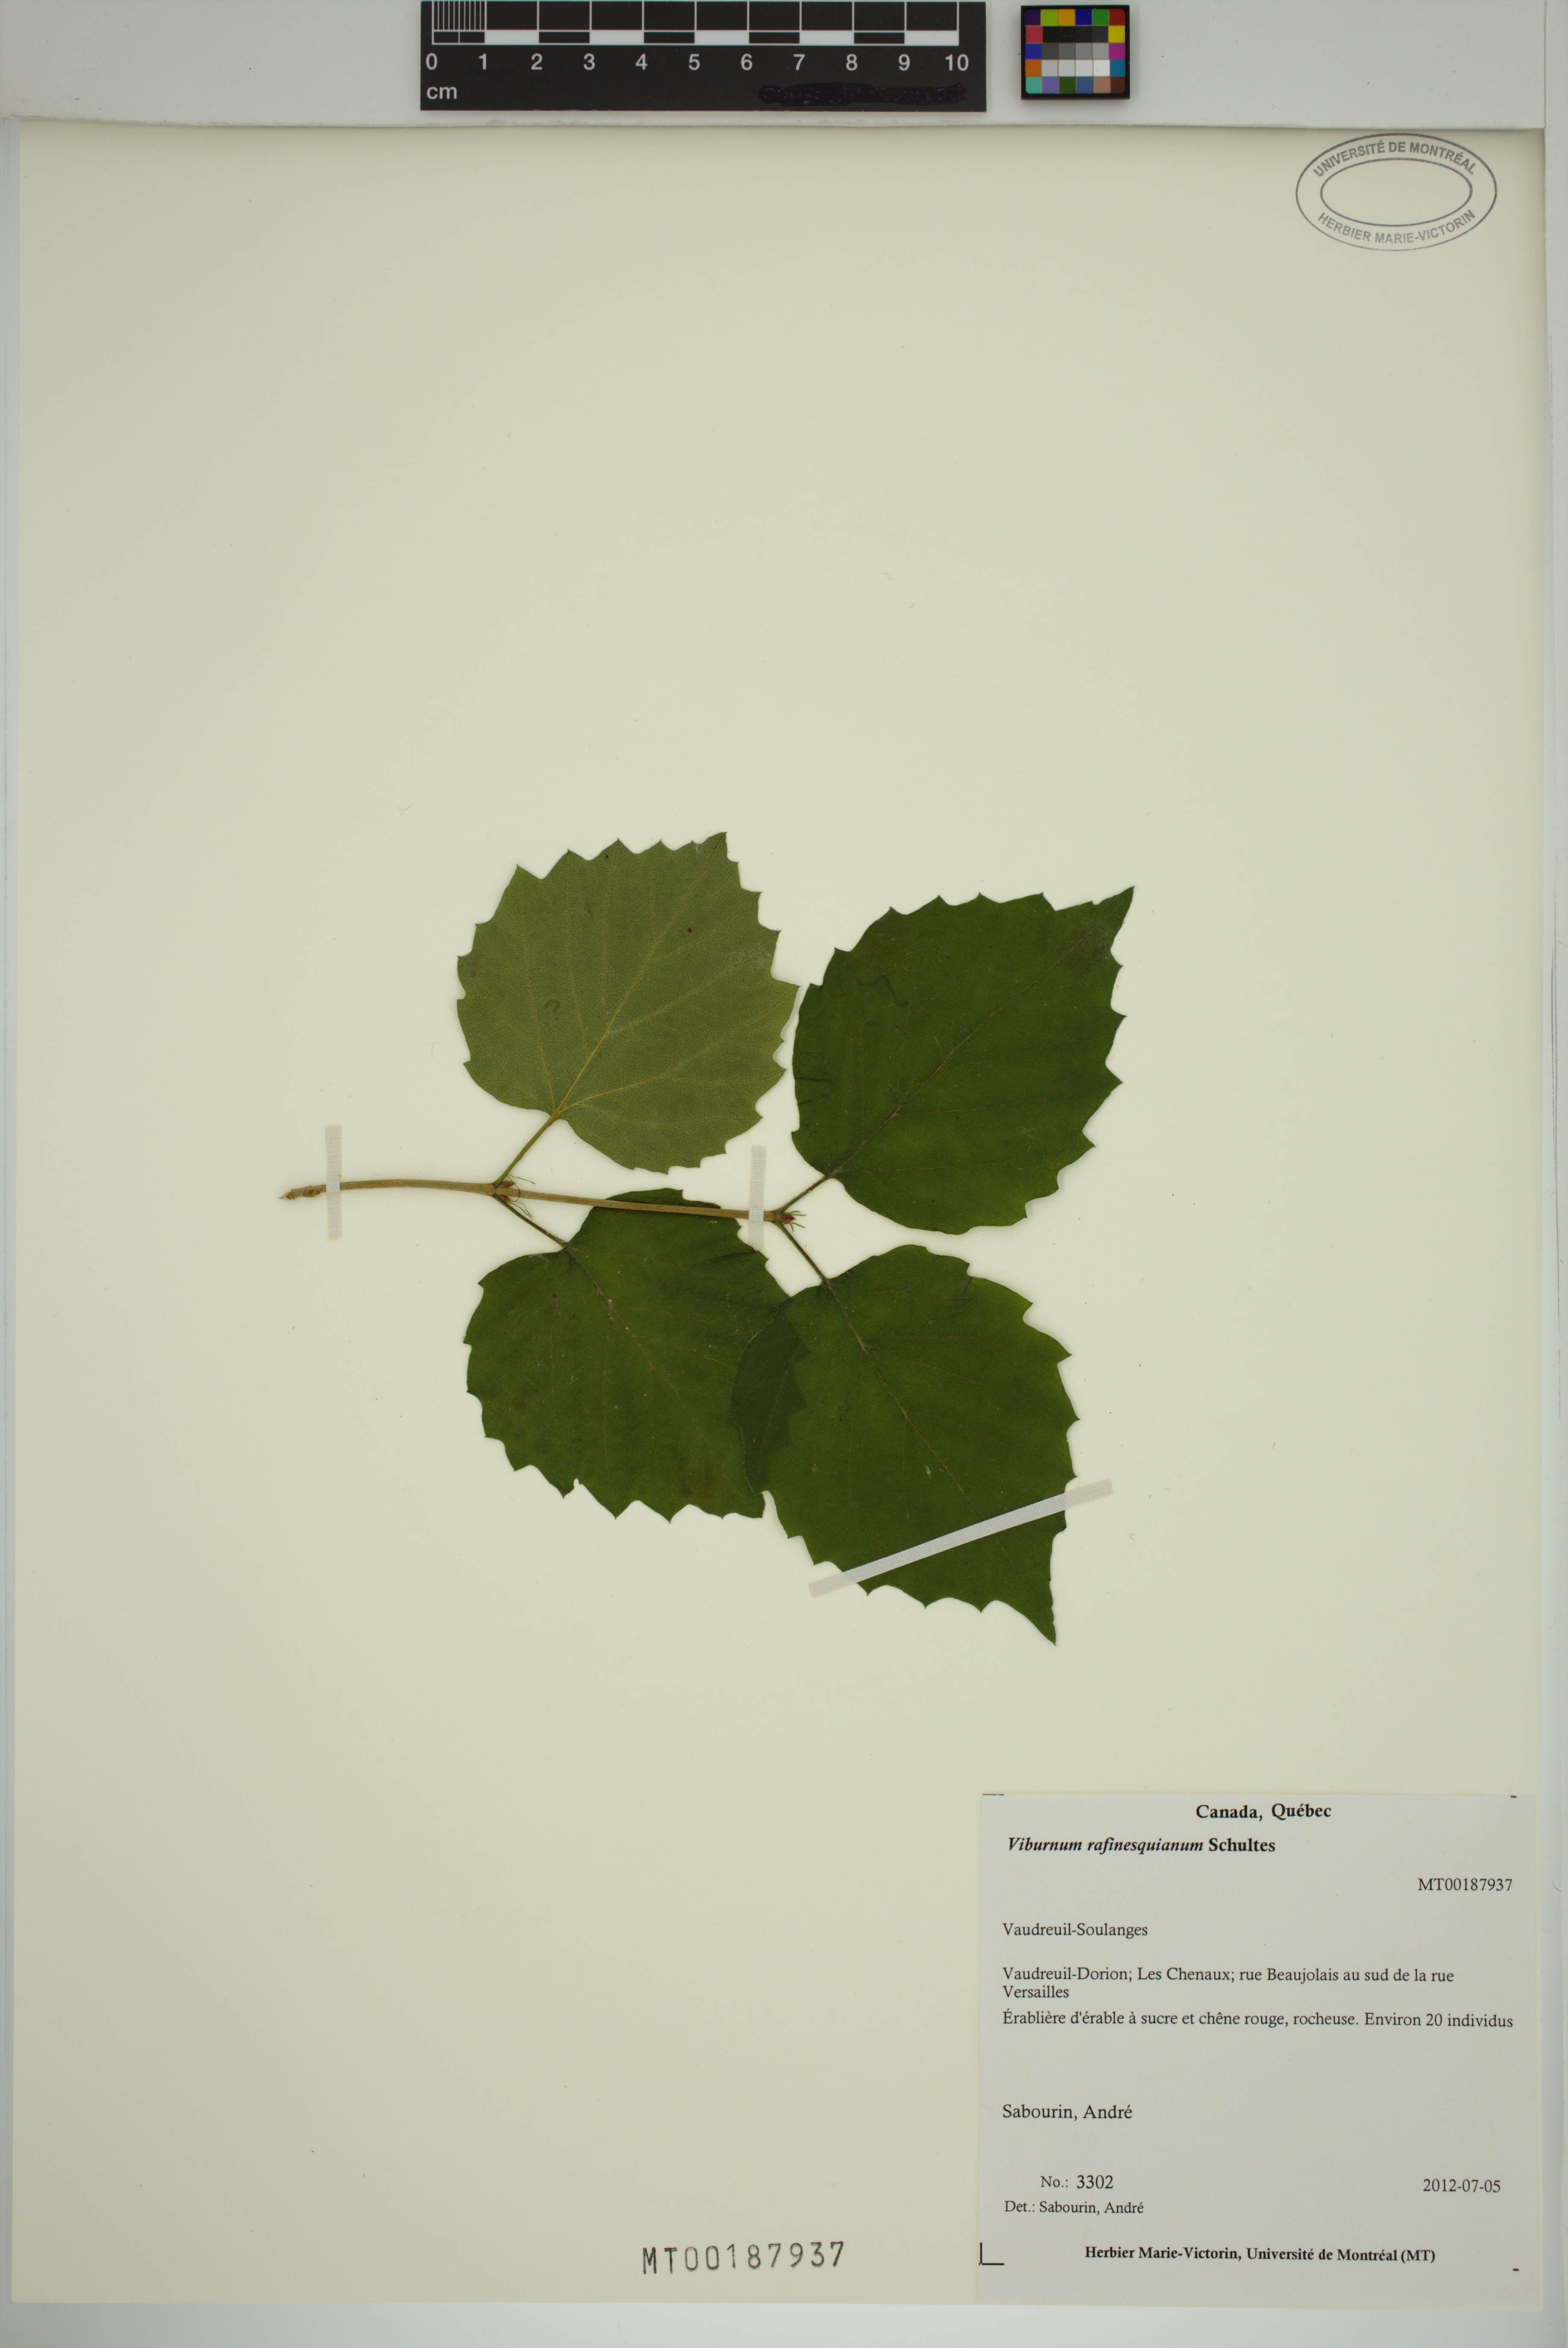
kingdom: Plantae
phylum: Tracheophyta
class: Magnoliopsida
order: Dipsacales
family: Viburnaceae
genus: Viburnum
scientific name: Viburnum rafinesqueanum
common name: Downy arrow-wood
